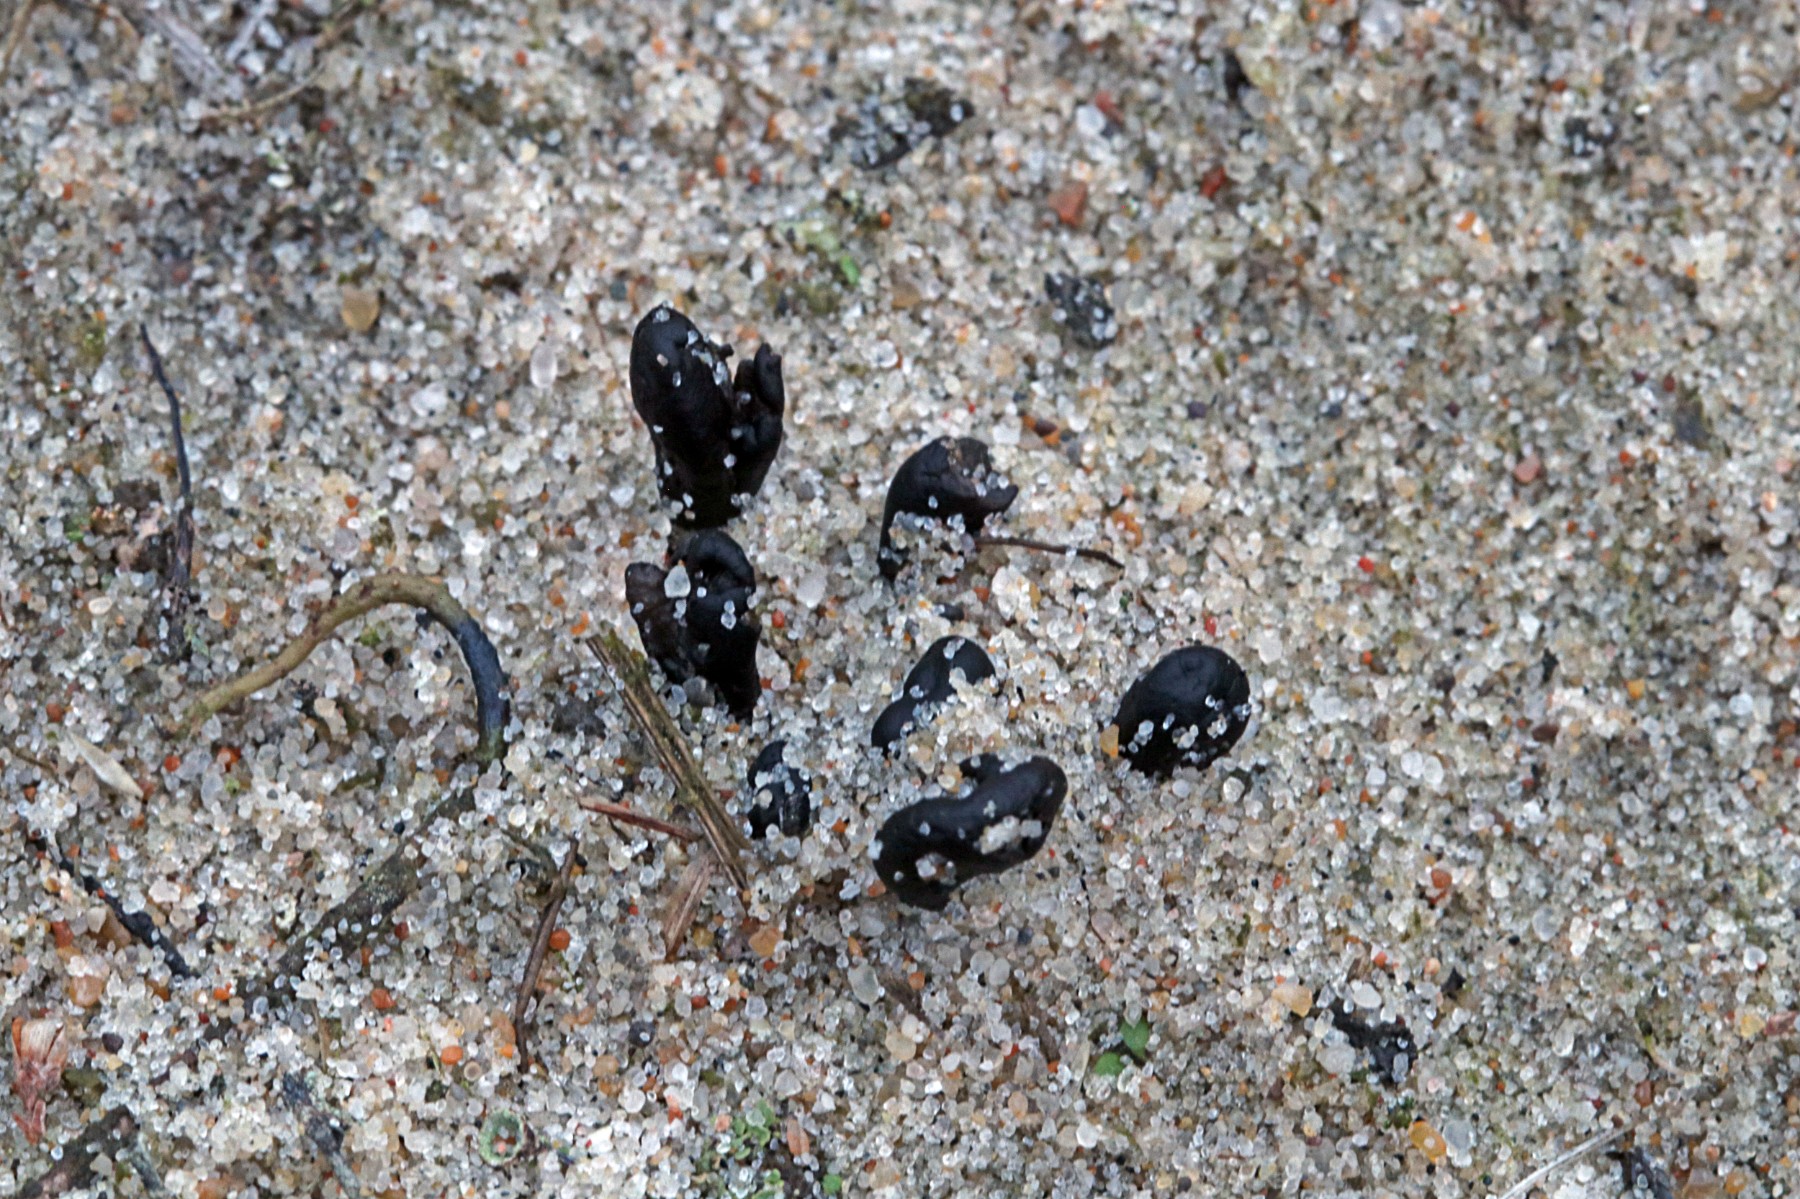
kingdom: Fungi
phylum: Ascomycota
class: Geoglossomycetes
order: Geoglossales
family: Geoglossaceae
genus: Sabuloglossum
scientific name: Sabuloglossum arenarium
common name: klit-jordtunge
